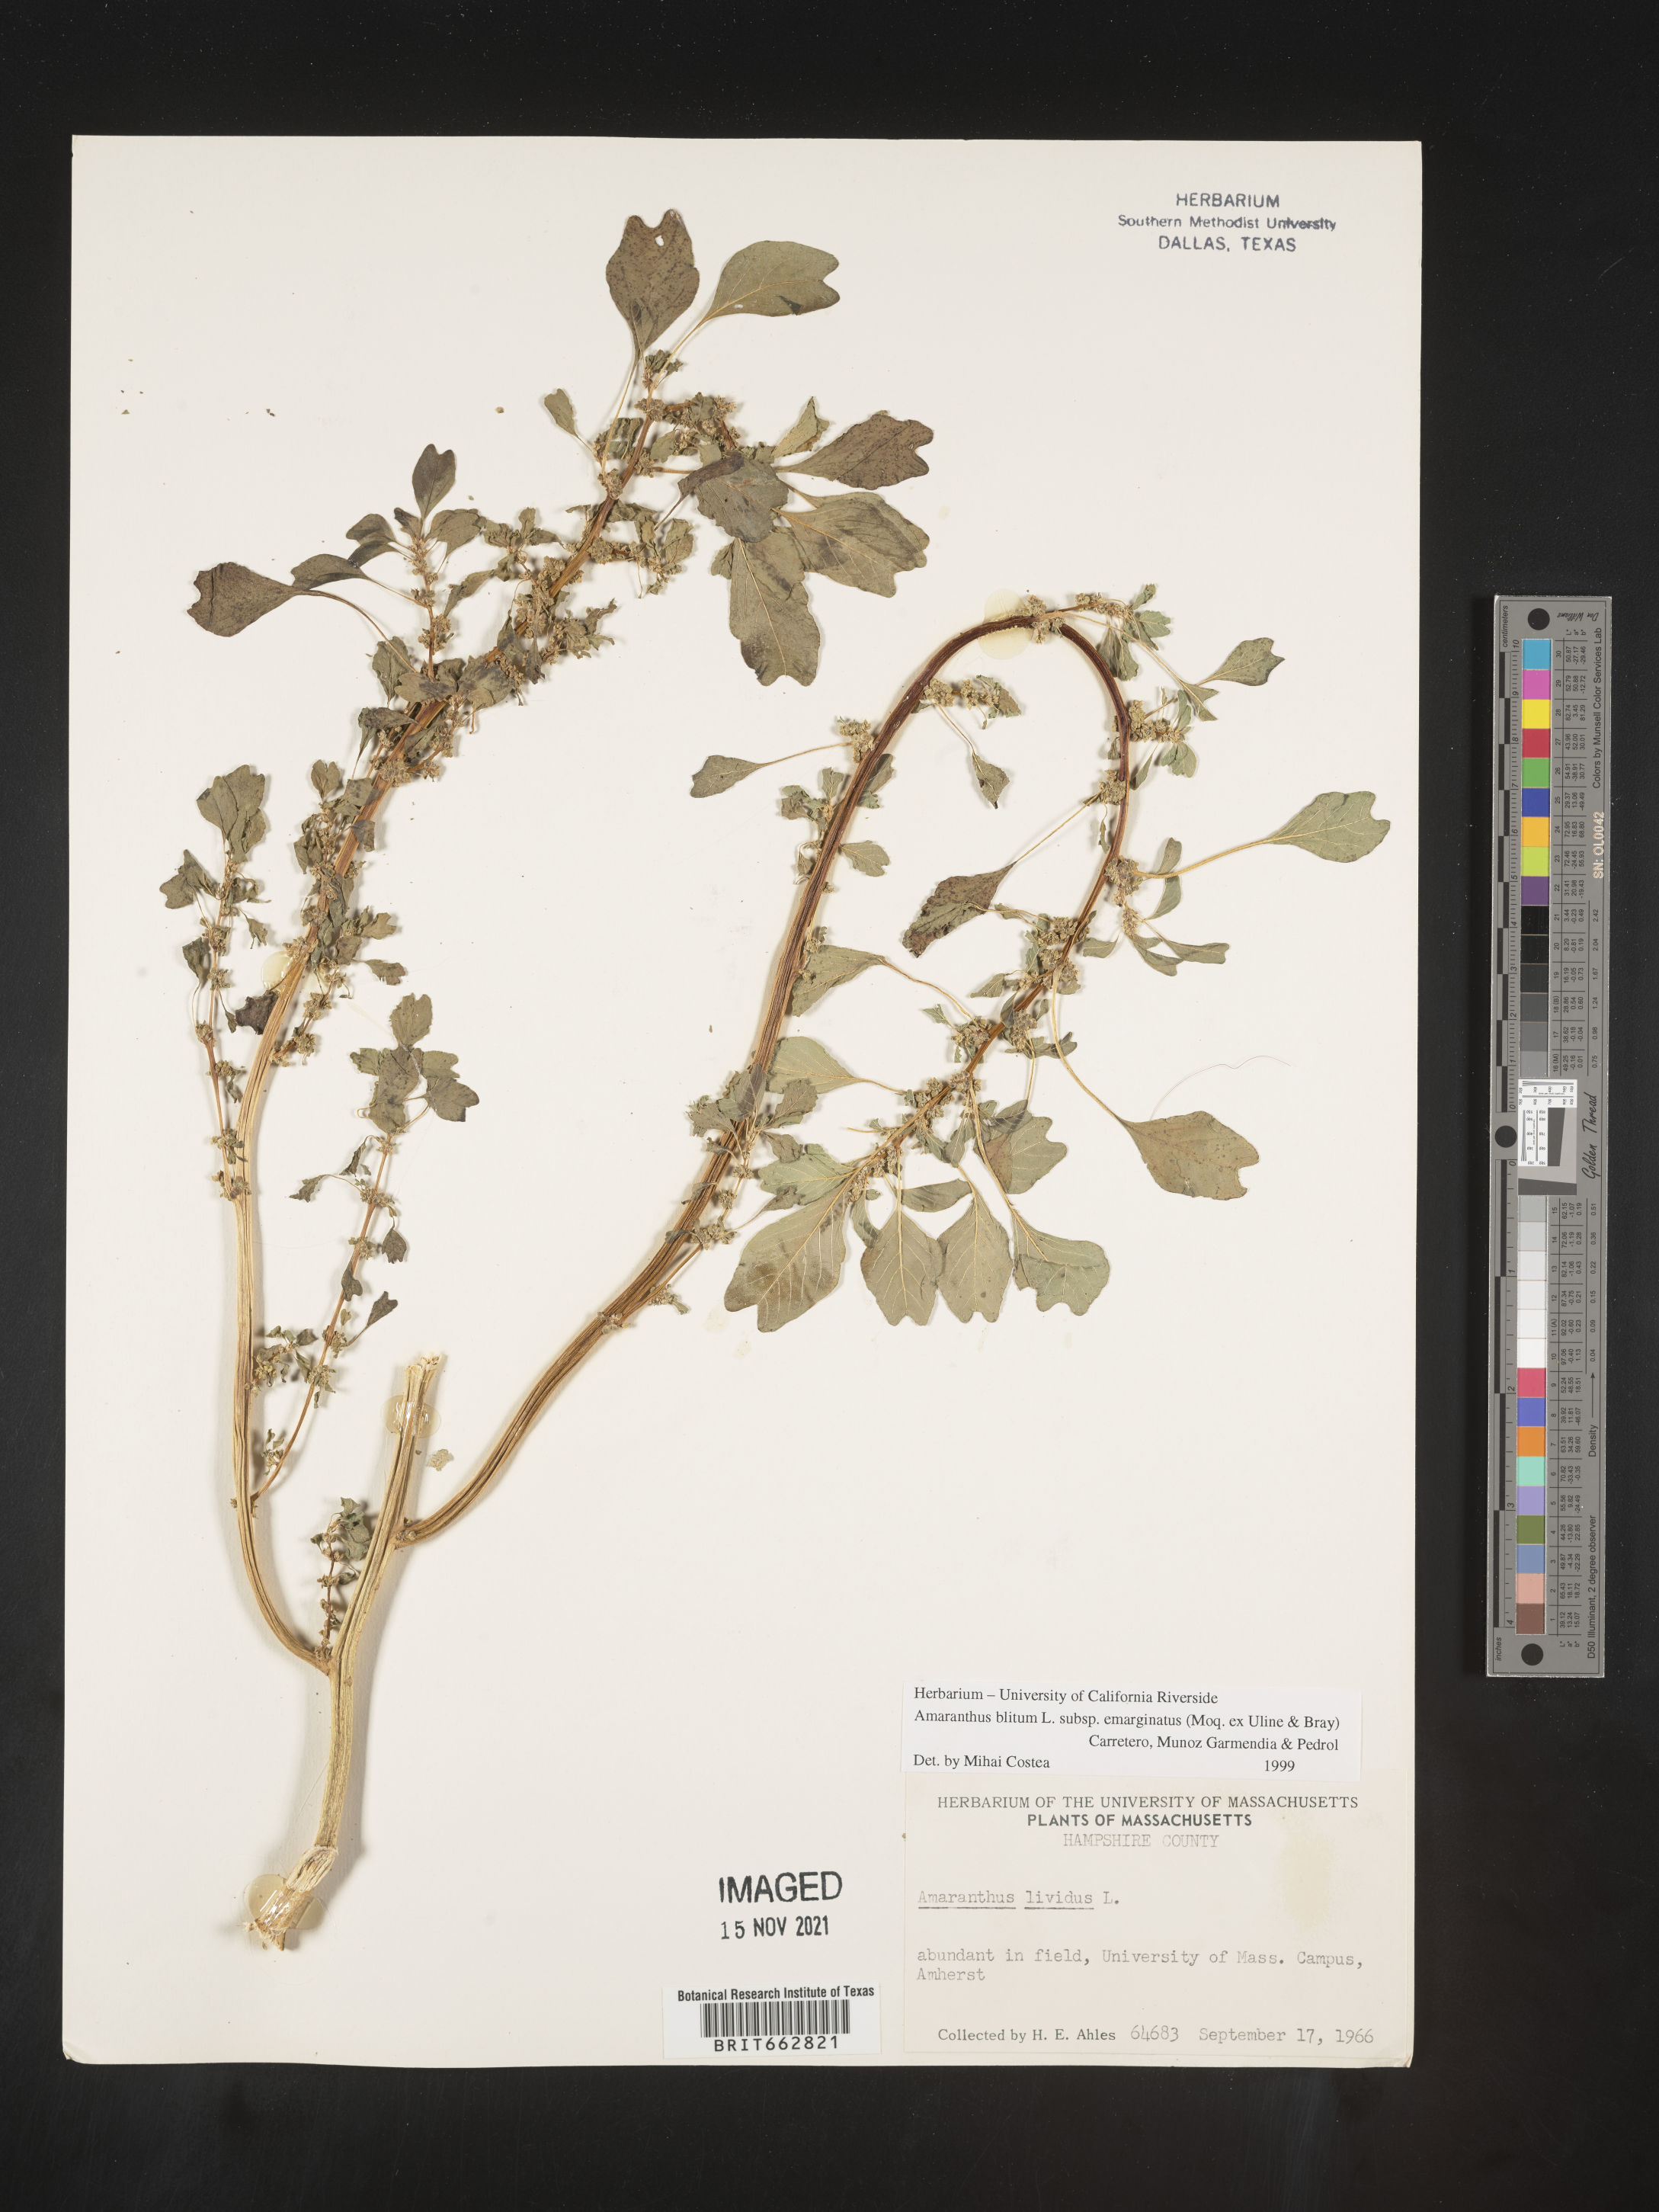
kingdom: Plantae
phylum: Tracheophyta
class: Magnoliopsida
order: Caryophyllales
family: Amaranthaceae
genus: Amaranthus
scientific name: Amaranthus blitum
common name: Purple amaranth
